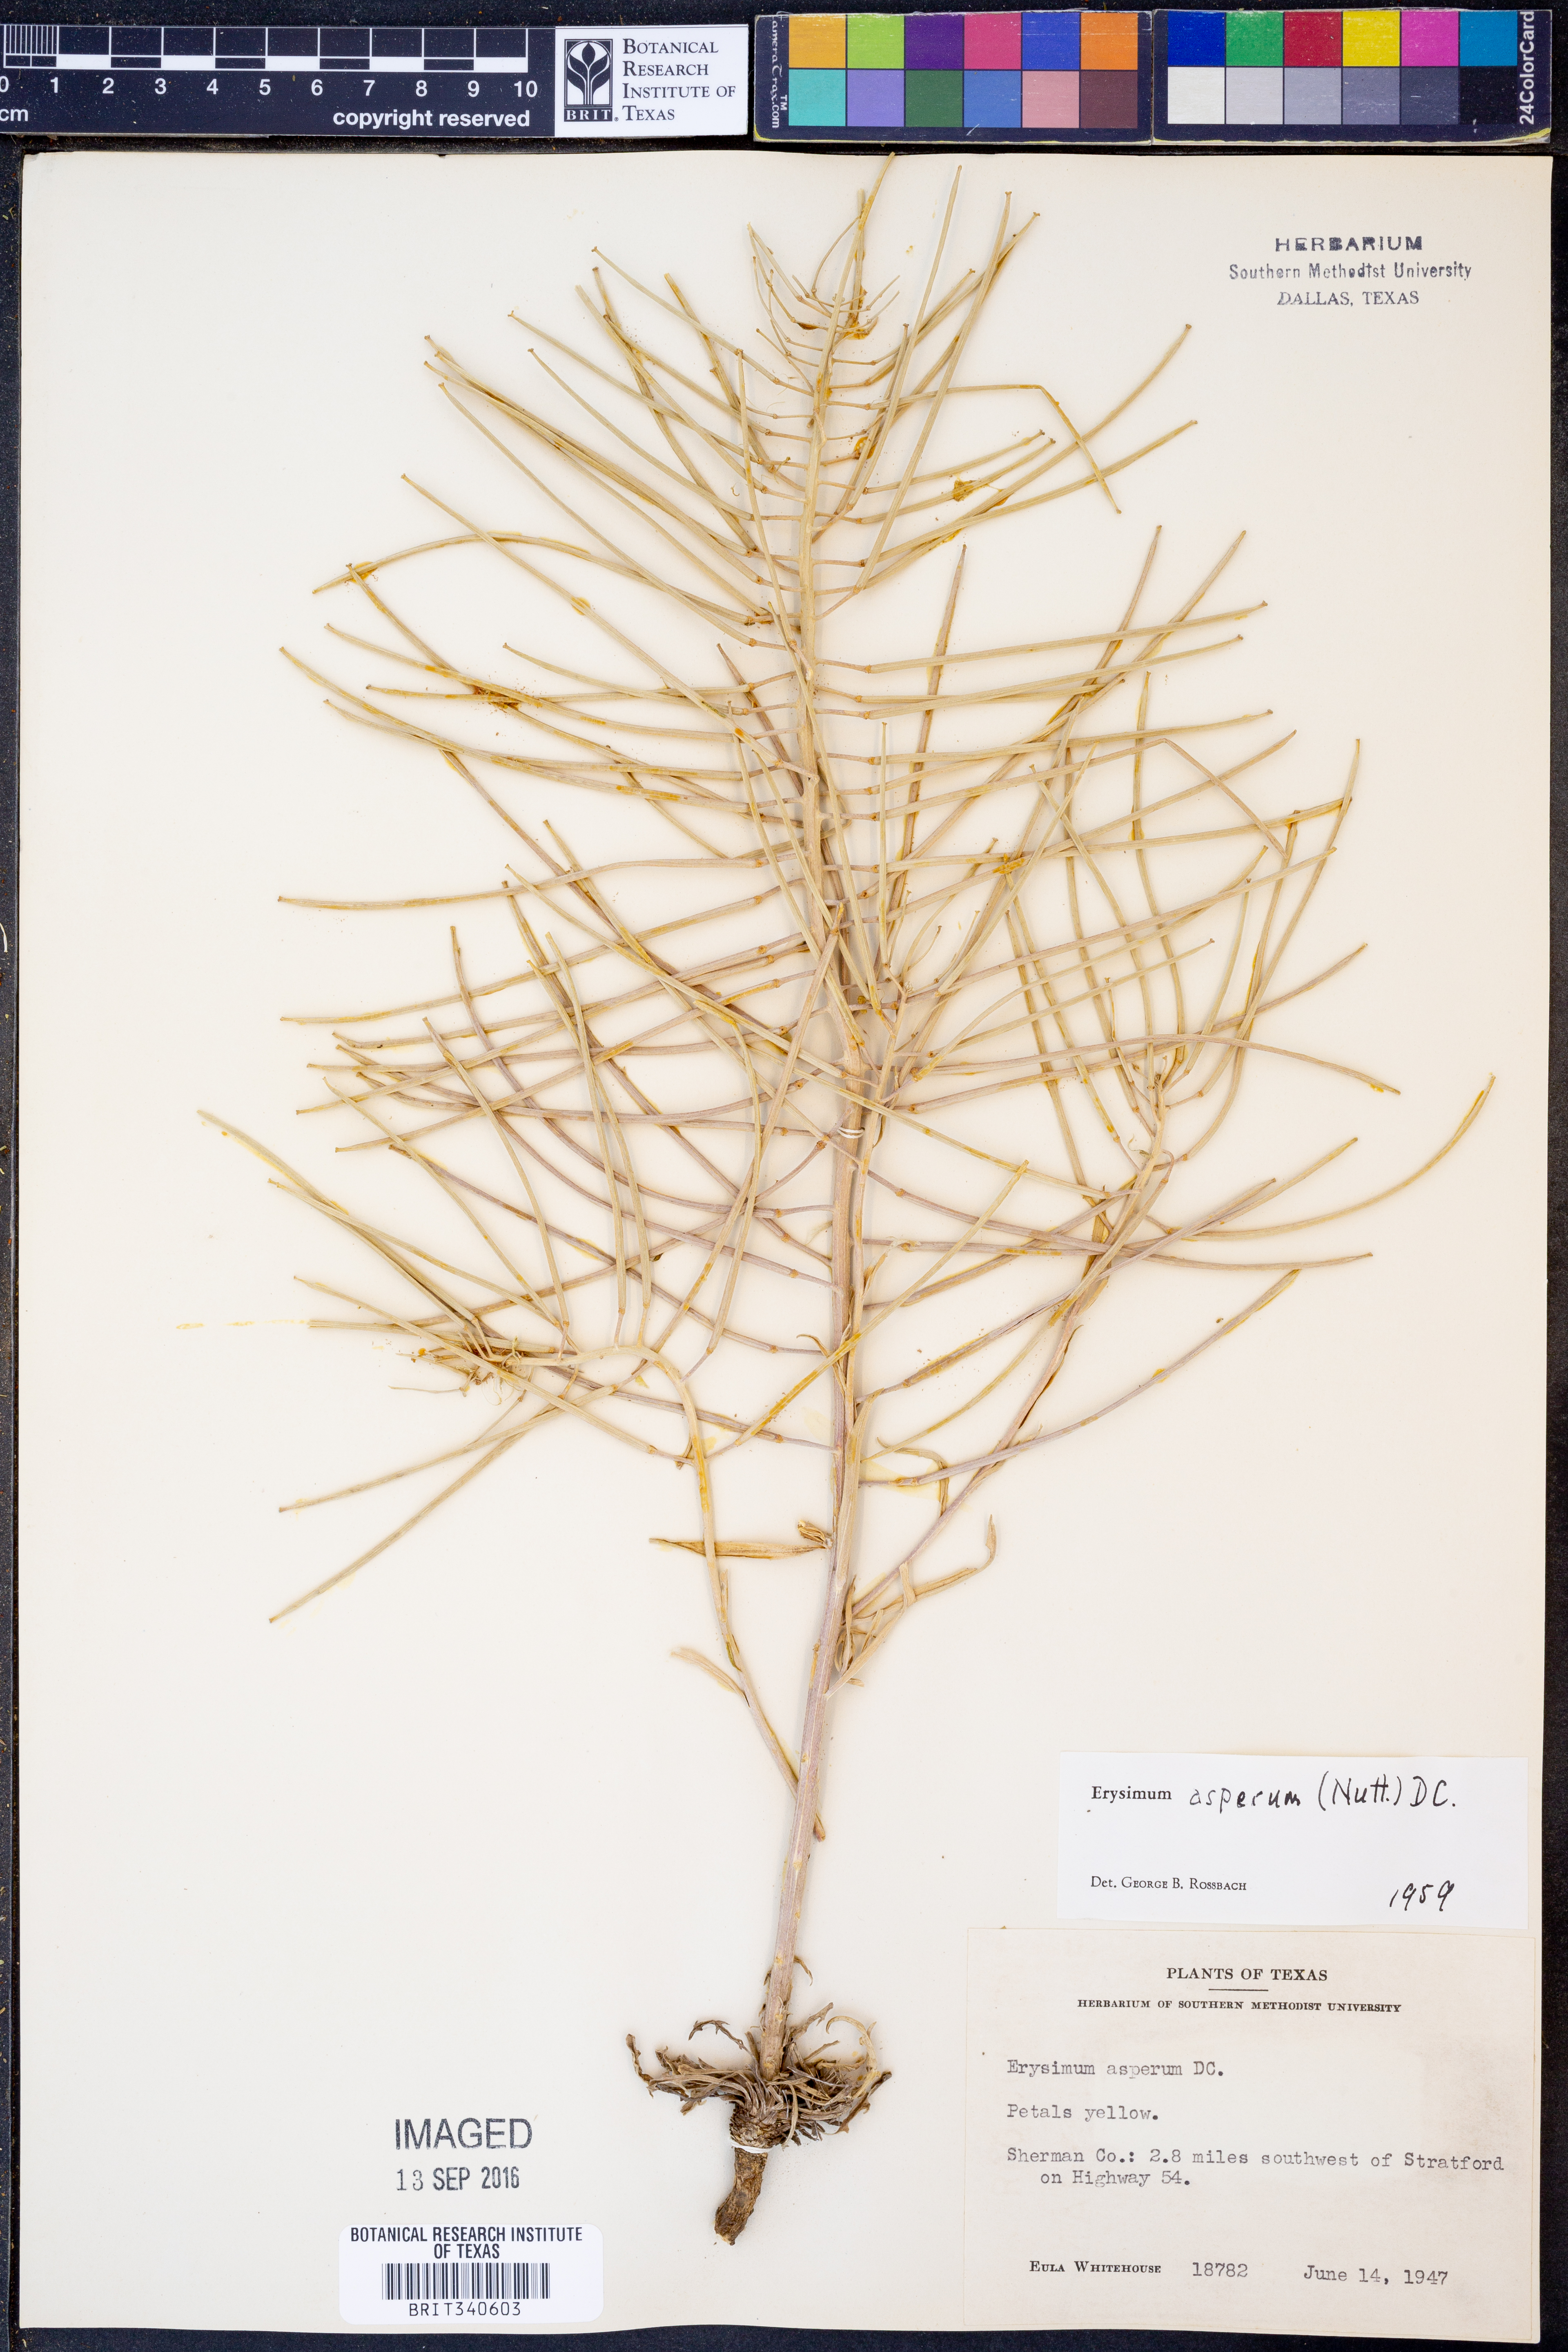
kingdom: Plantae
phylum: Tracheophyta
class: Magnoliopsida
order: Brassicales
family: Brassicaceae
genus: Erysimum
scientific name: Erysimum asperum
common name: Western wallflower
